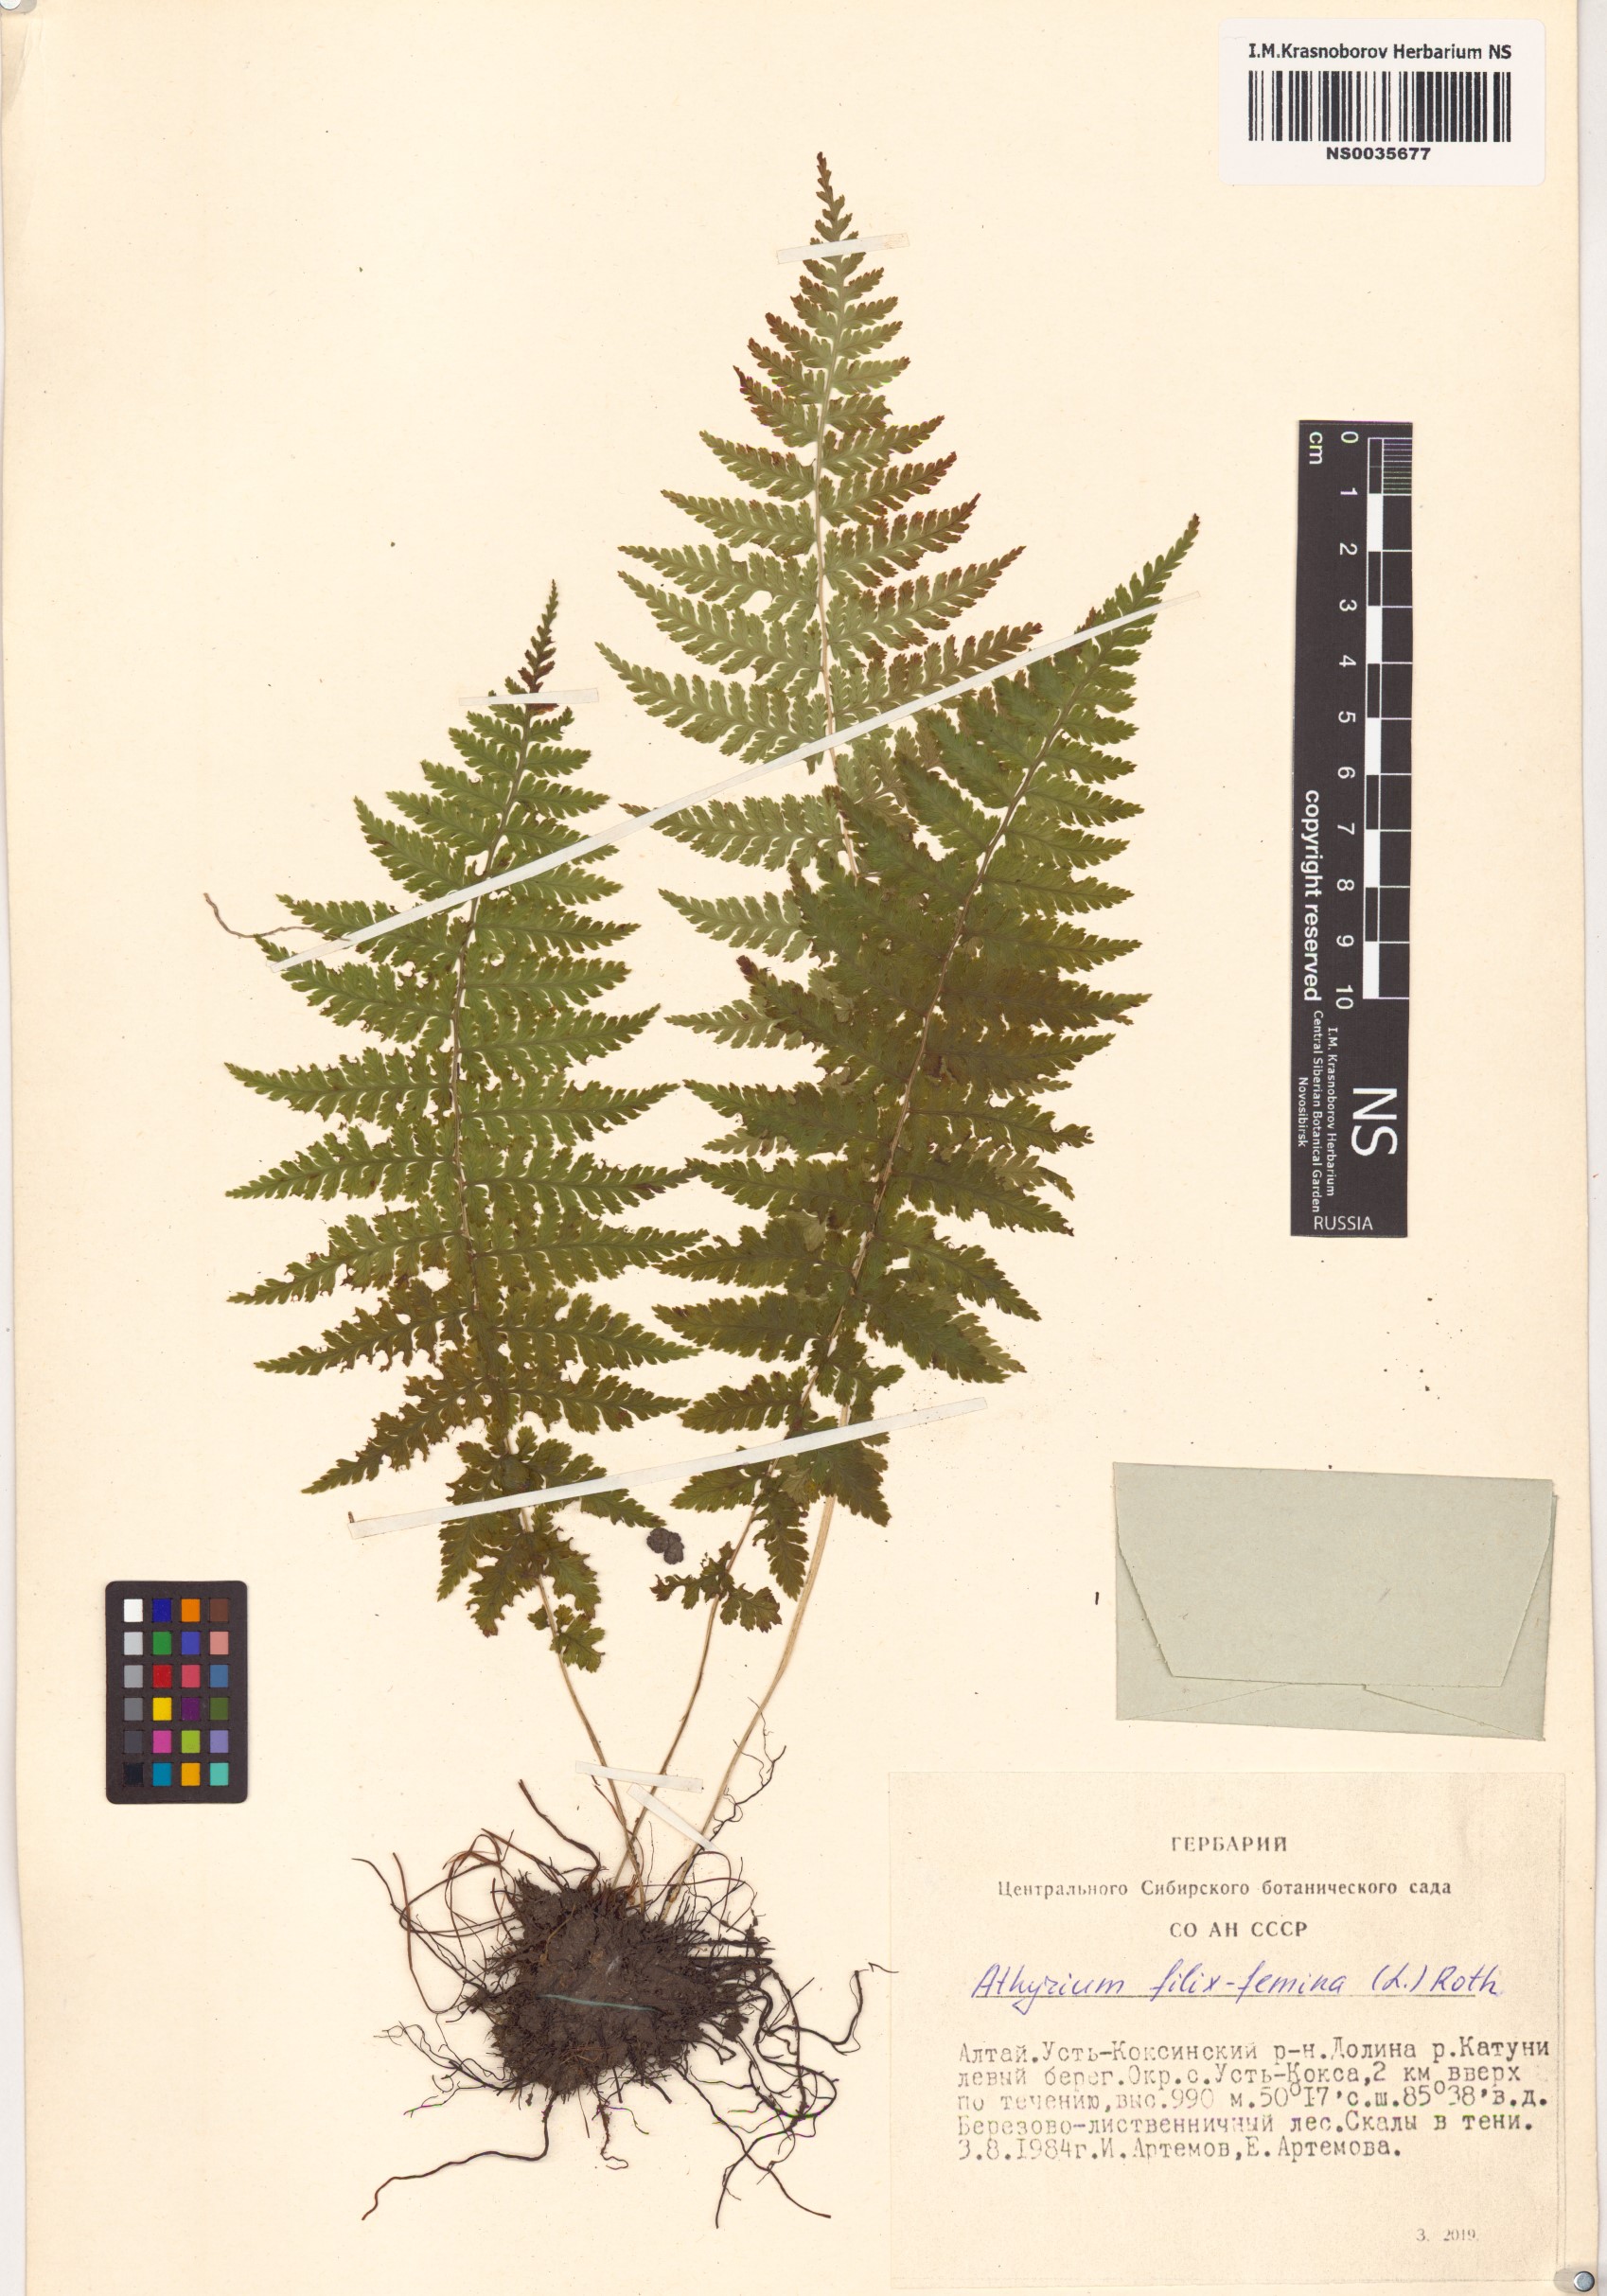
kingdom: Plantae
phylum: Tracheophyta
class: Polypodiopsida
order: Polypodiales
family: Athyriaceae
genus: Athyrium
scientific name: Athyrium filix-femina
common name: Lady fern
